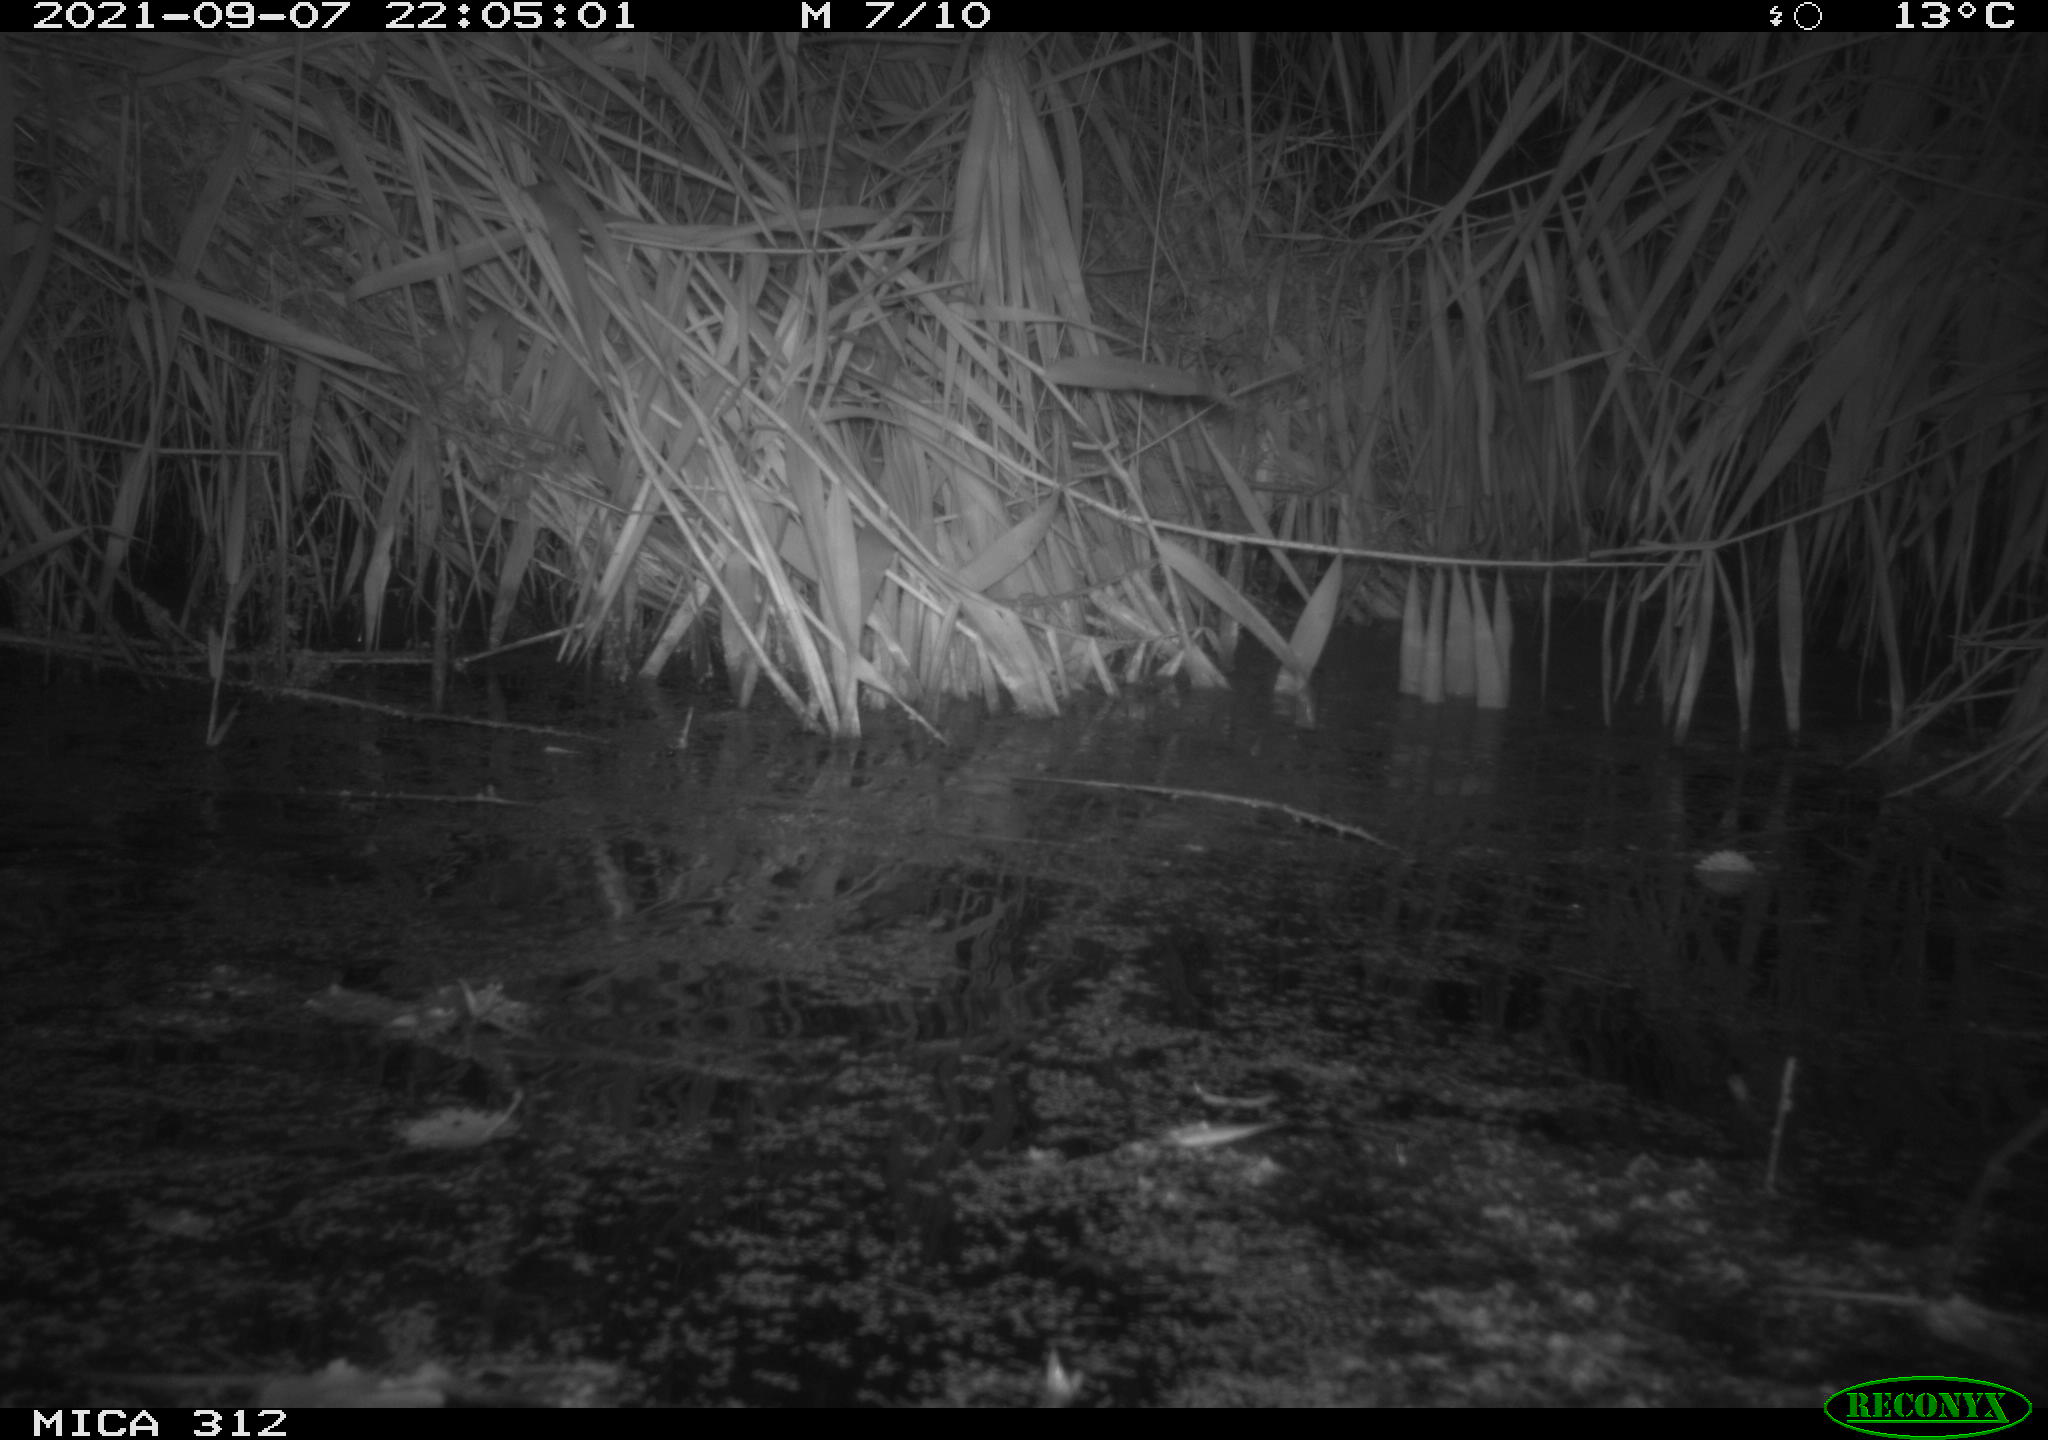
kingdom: Animalia
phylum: Chordata
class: Mammalia
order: Rodentia
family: Cricetidae
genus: Ondatra
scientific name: Ondatra zibethicus
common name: Muskrat
